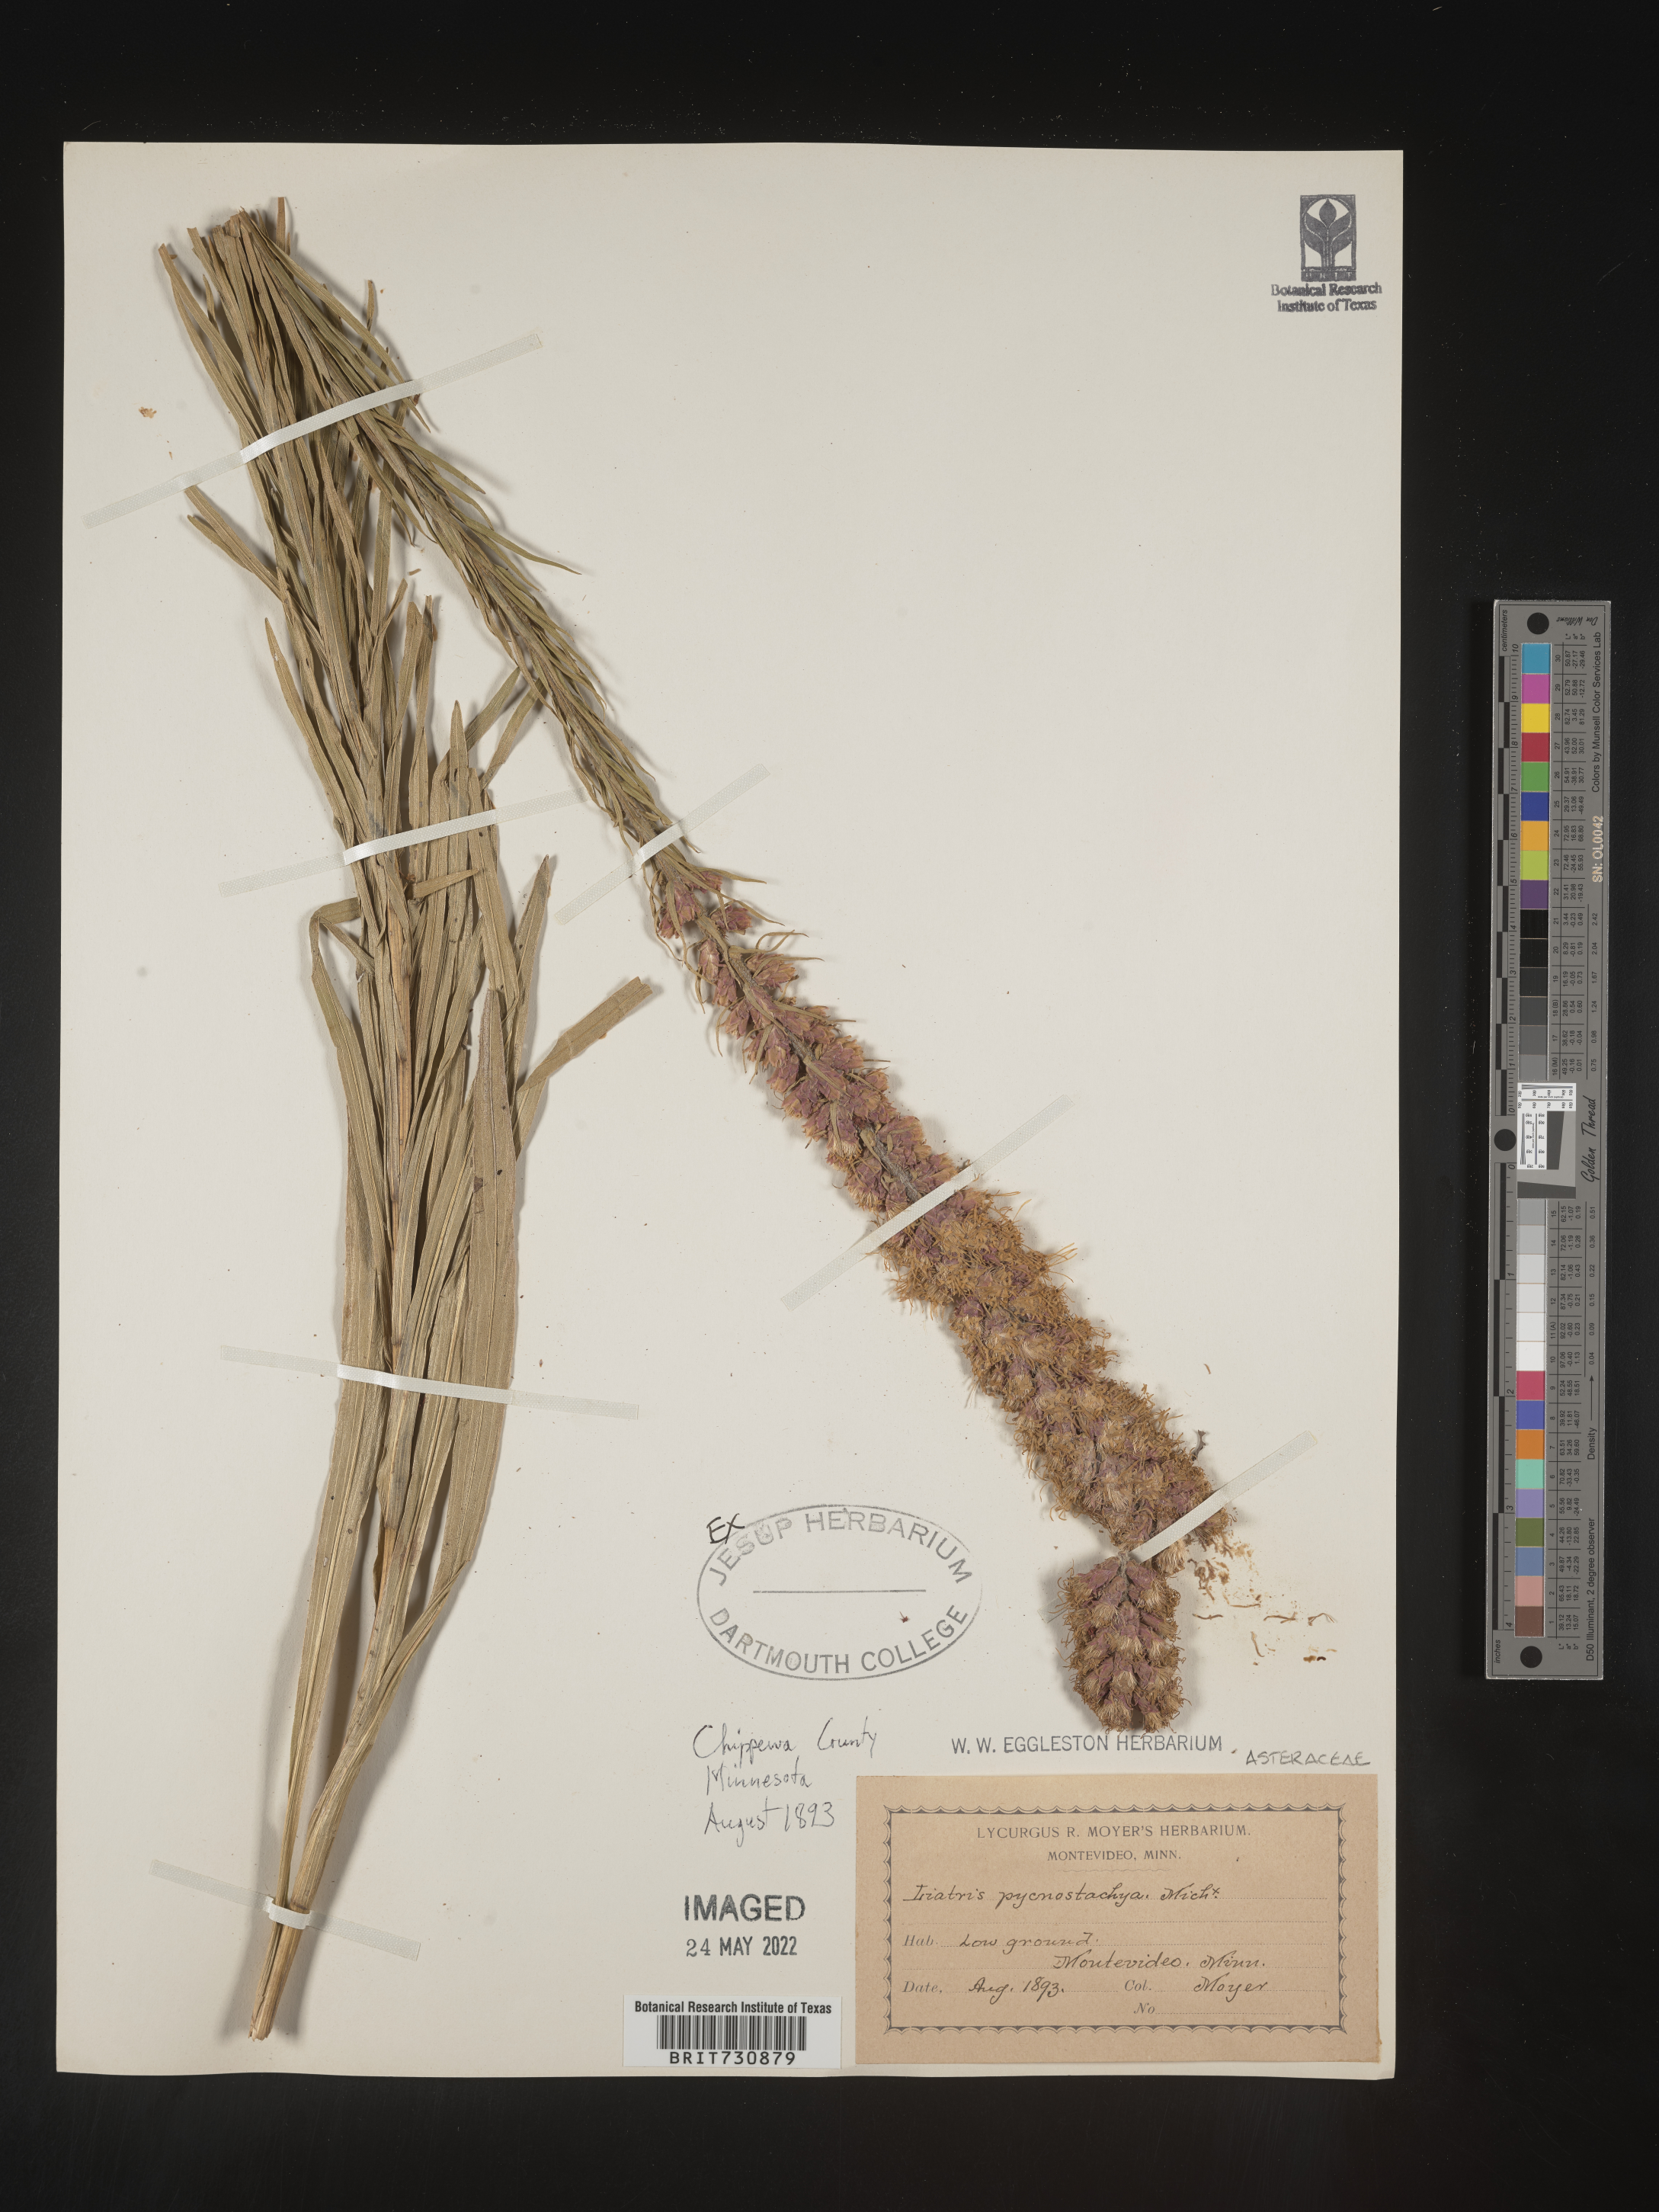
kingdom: Plantae
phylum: Tracheophyta
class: Magnoliopsida
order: Asterales
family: Asteraceae
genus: Liatris
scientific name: Liatris pycnostachya
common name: Cattail gayfeather
